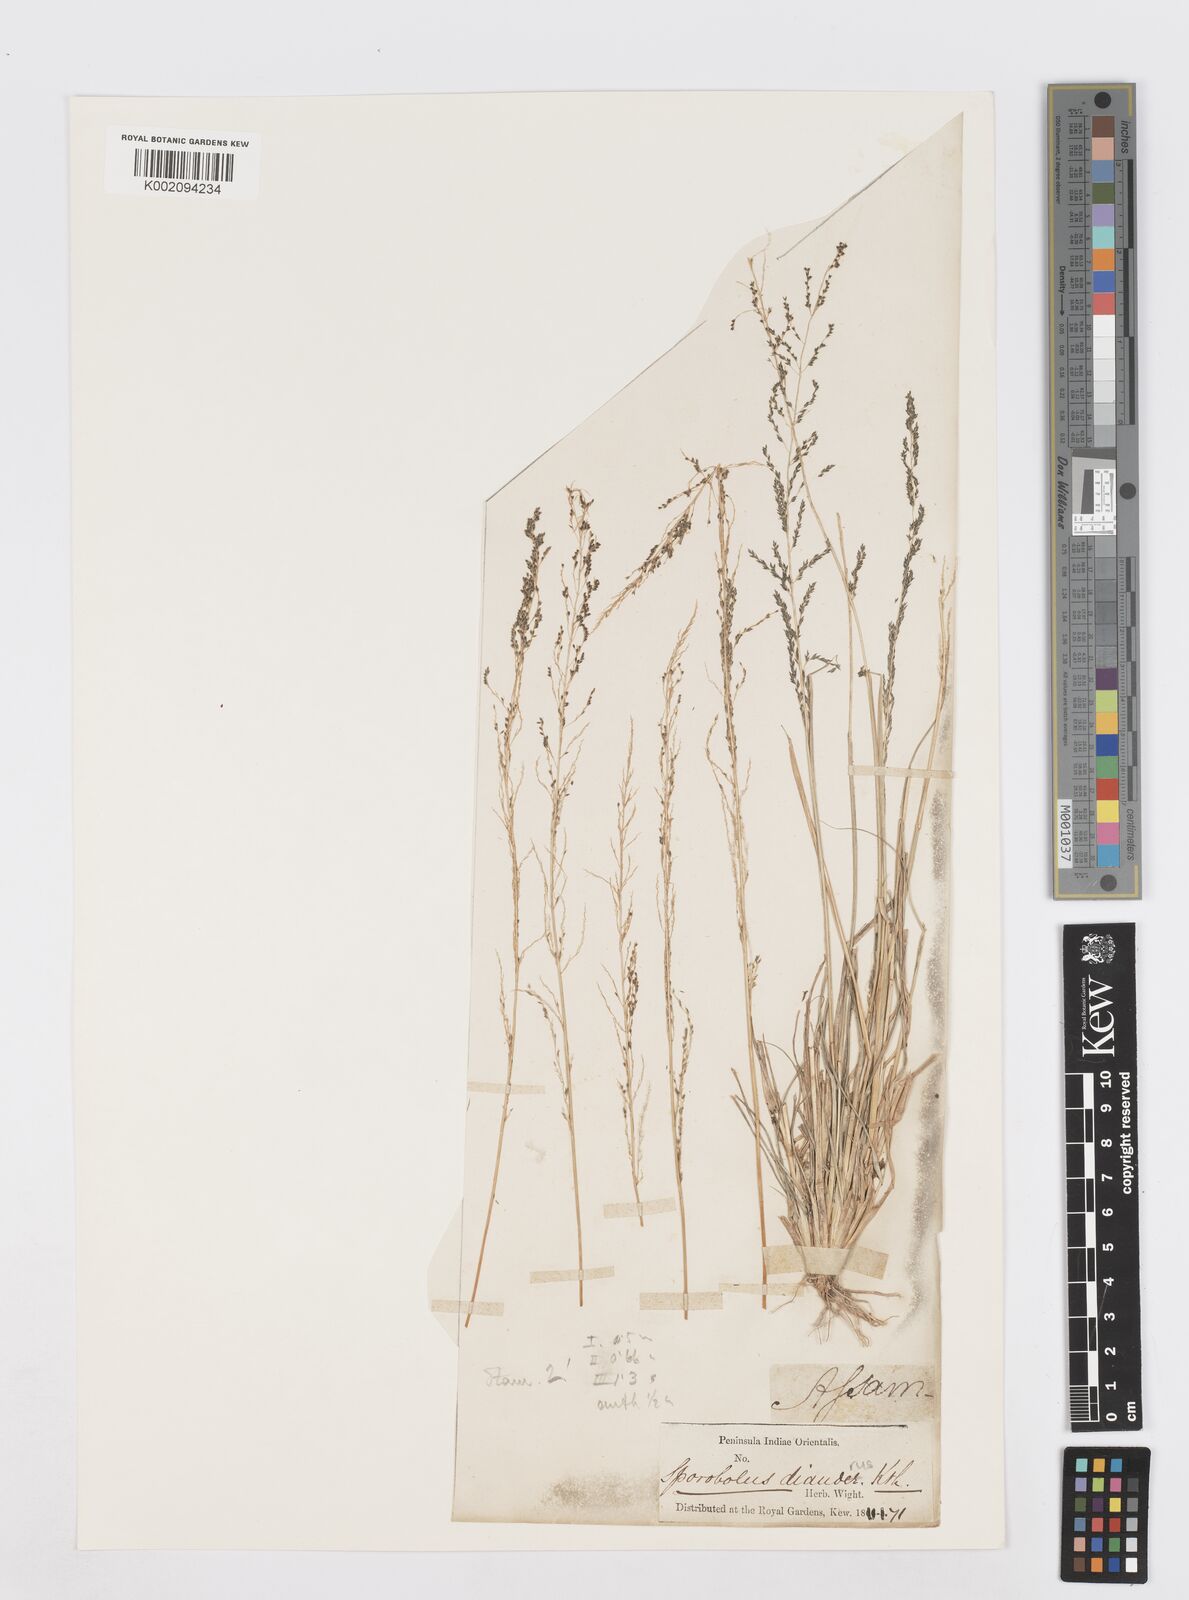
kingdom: Plantae
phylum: Tracheophyta
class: Liliopsida
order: Poales
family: Poaceae
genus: Sporobolus
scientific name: Sporobolus diandrus
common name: Tussock dropseed
